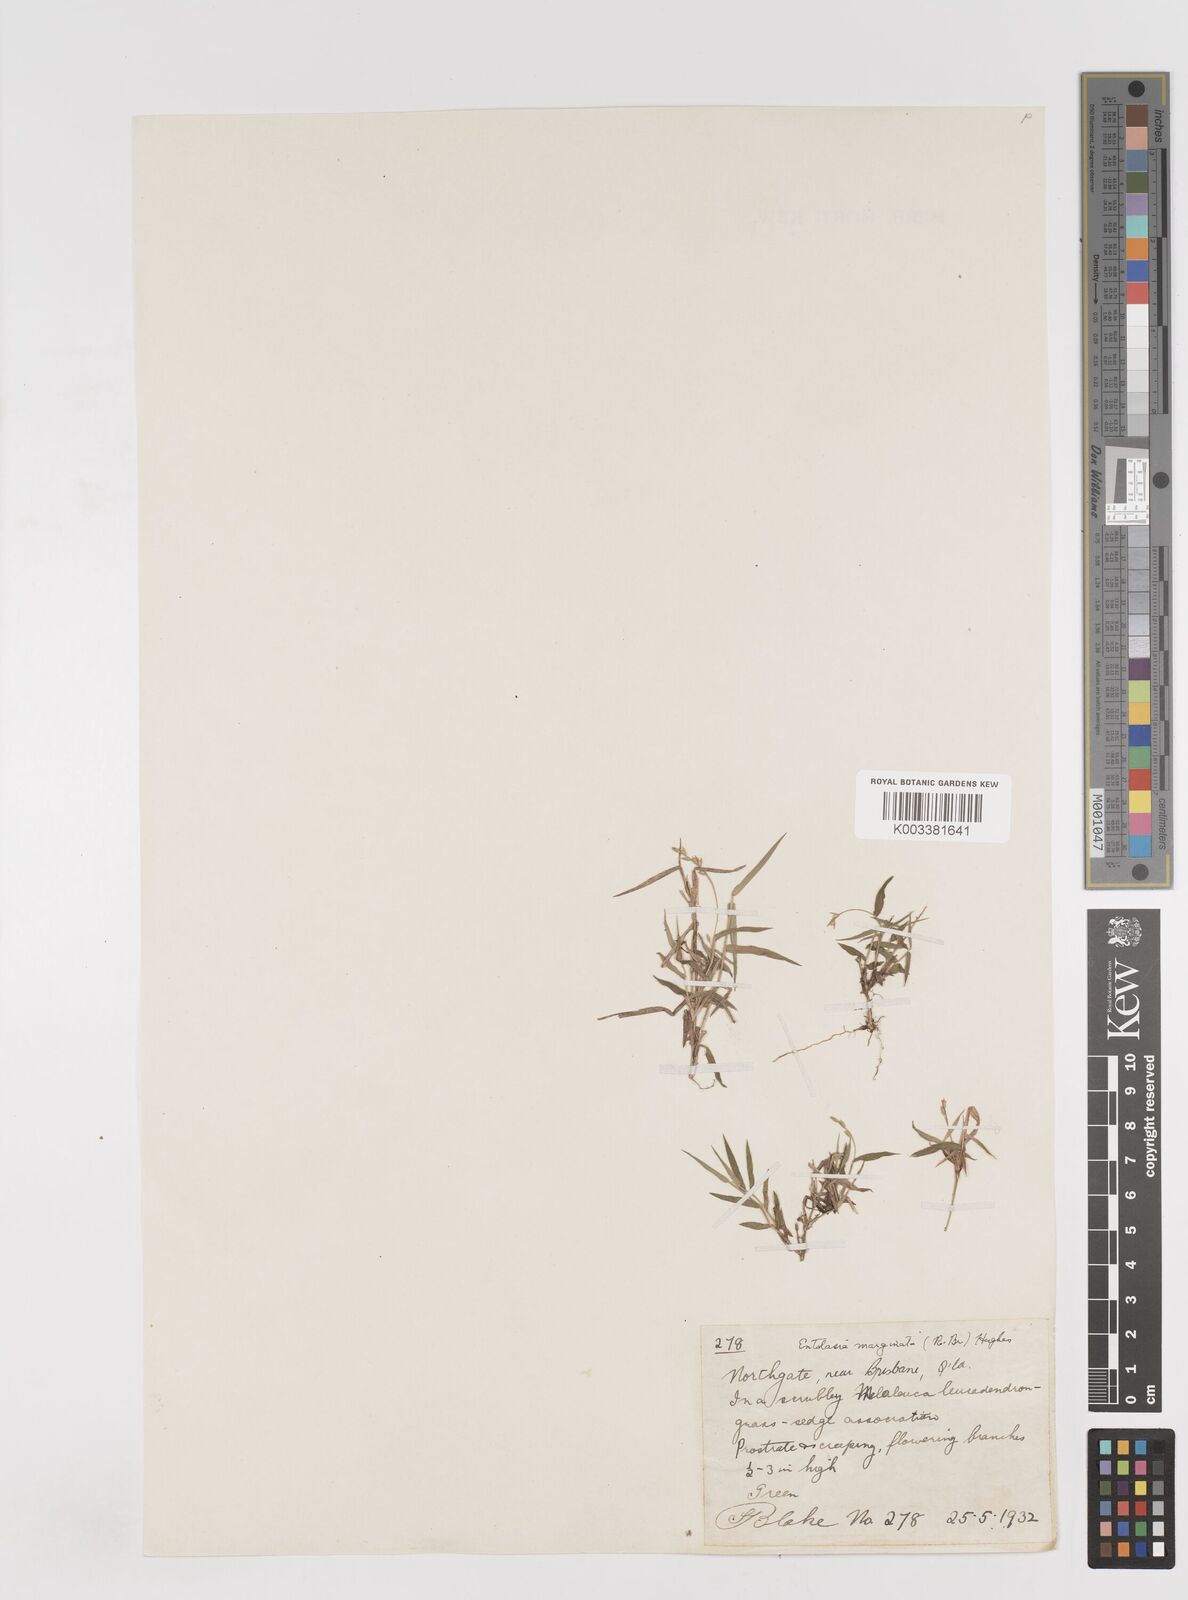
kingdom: Plantae
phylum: Tracheophyta
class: Liliopsida
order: Poales
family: Poaceae
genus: Entolasia
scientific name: Entolasia marginata
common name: Australian panicgrass
